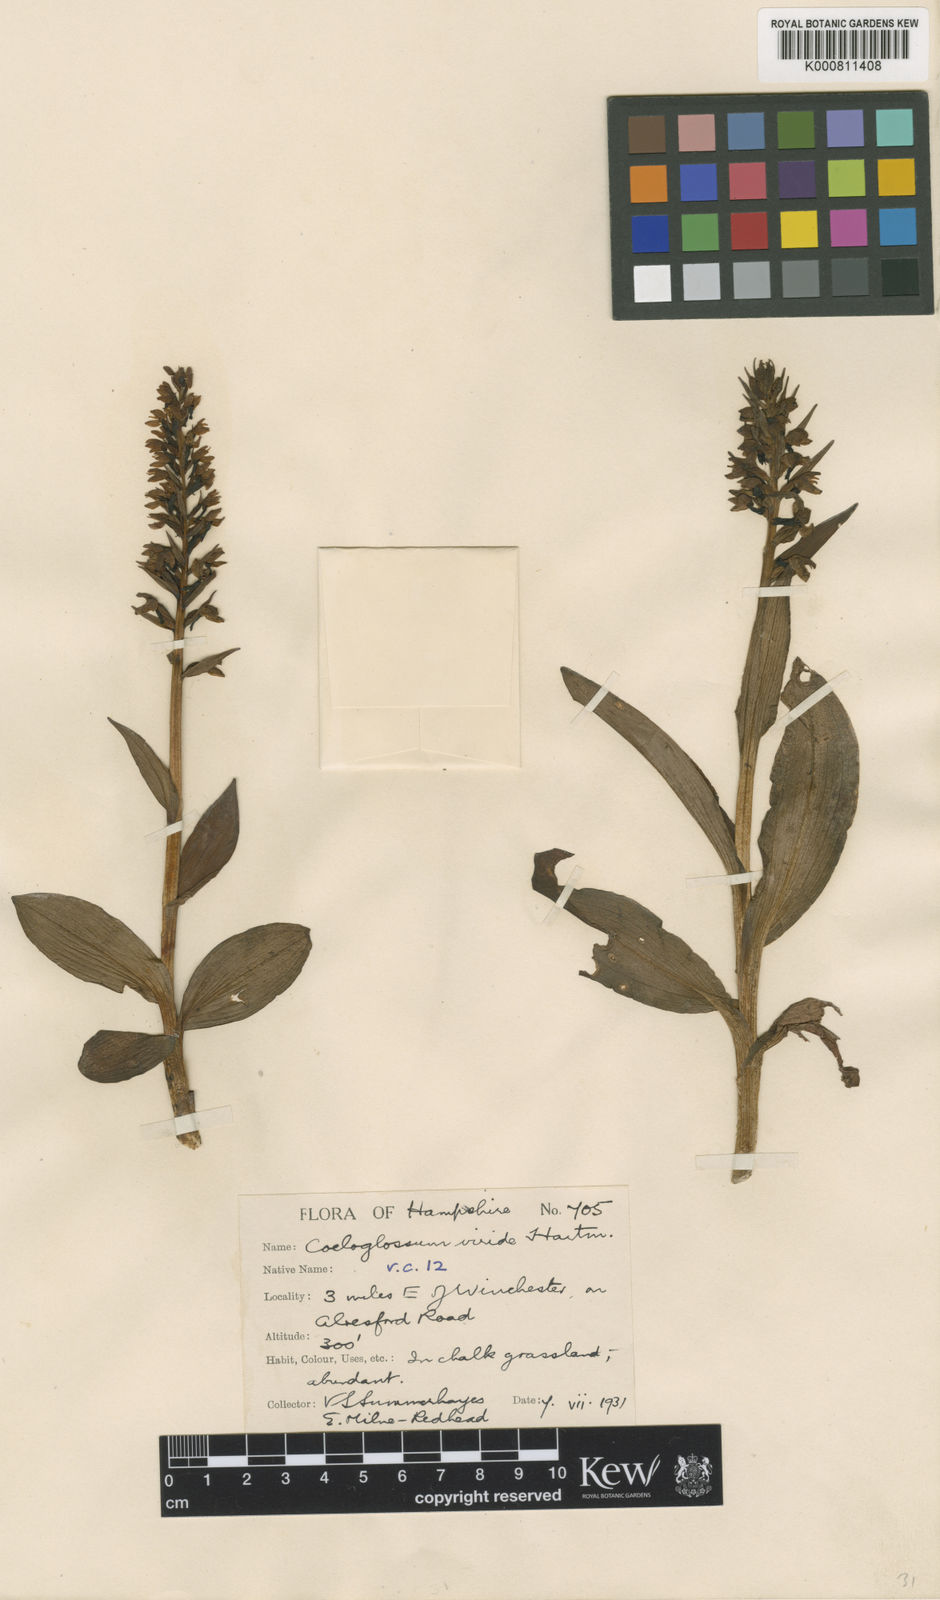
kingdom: Plantae
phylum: Tracheophyta
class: Liliopsida
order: Asparagales
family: Orchidaceae
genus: Dactylorhiza
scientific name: Dactylorhiza viridis
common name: Longbract frog orchid
